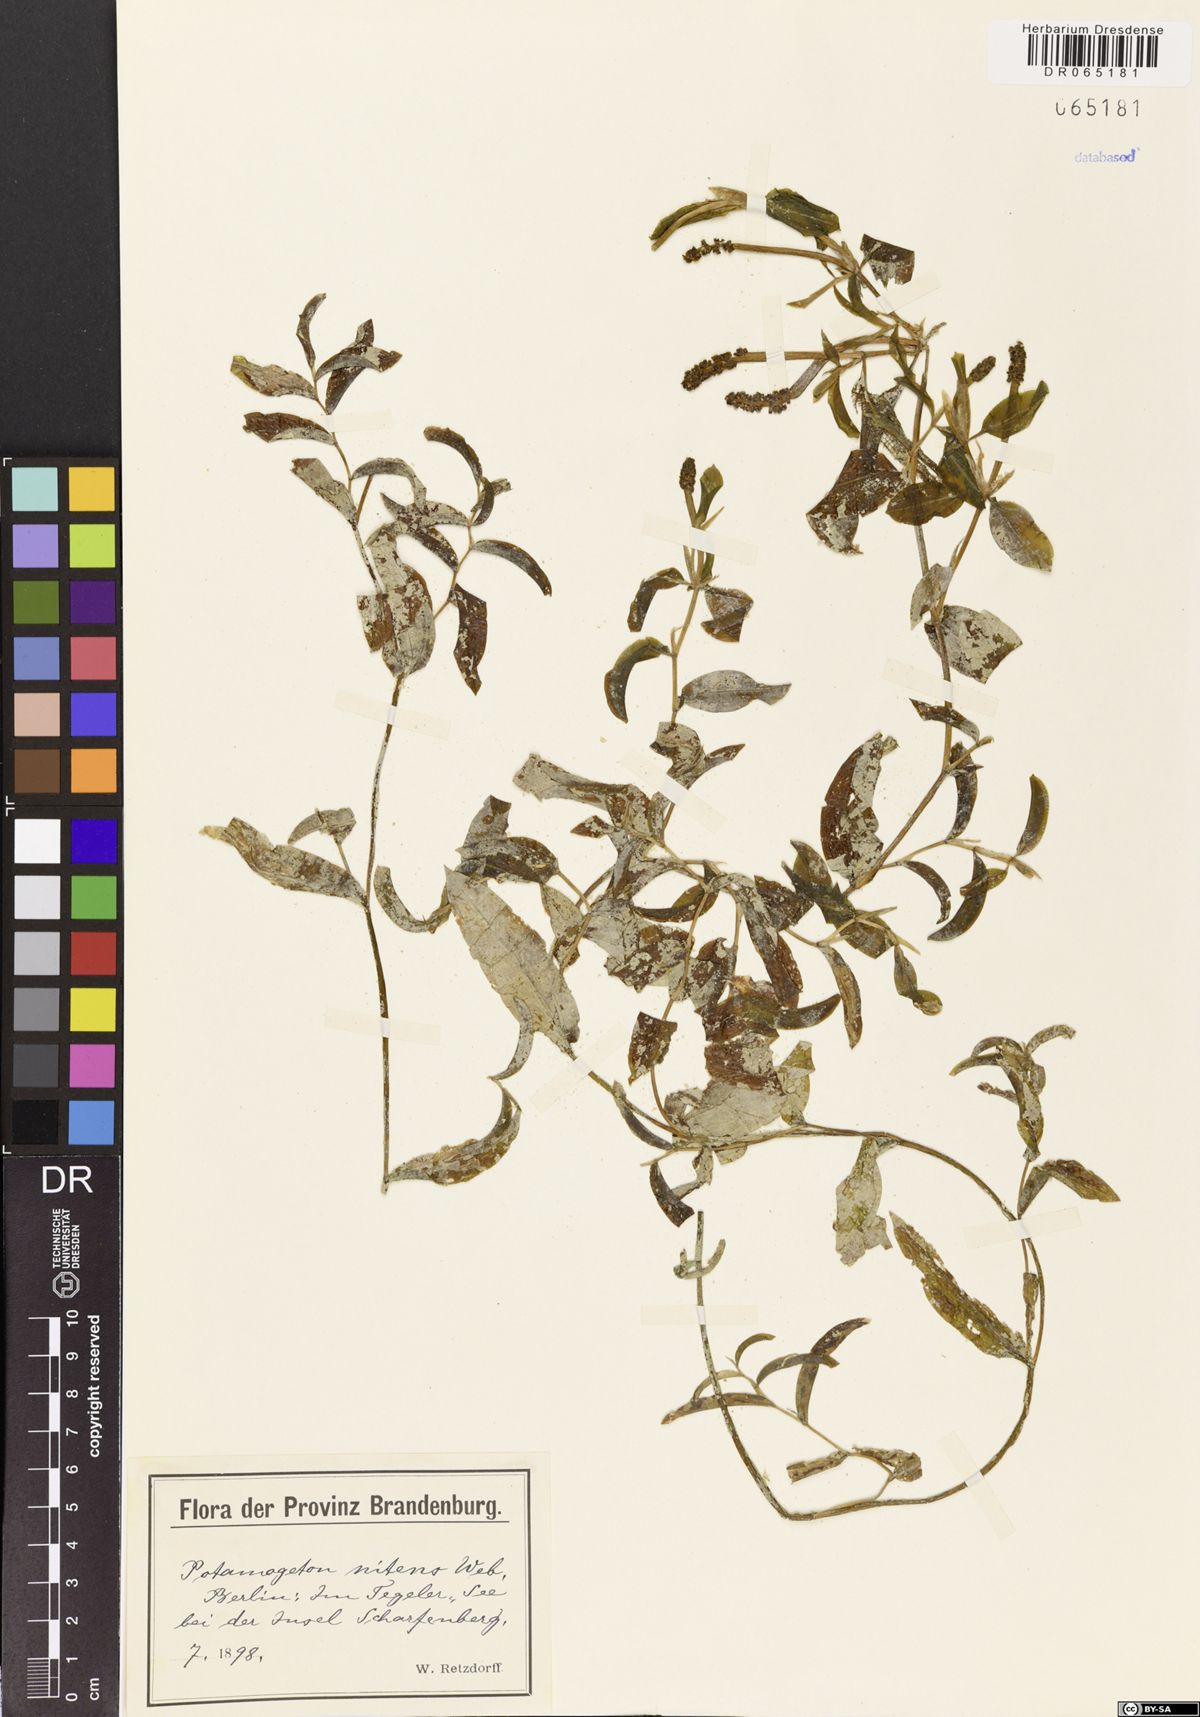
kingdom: Plantae
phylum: Tracheophyta
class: Liliopsida
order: Alismatales
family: Potamogetonaceae
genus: Potamogeton
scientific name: Potamogeton nitens
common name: Pondweed
